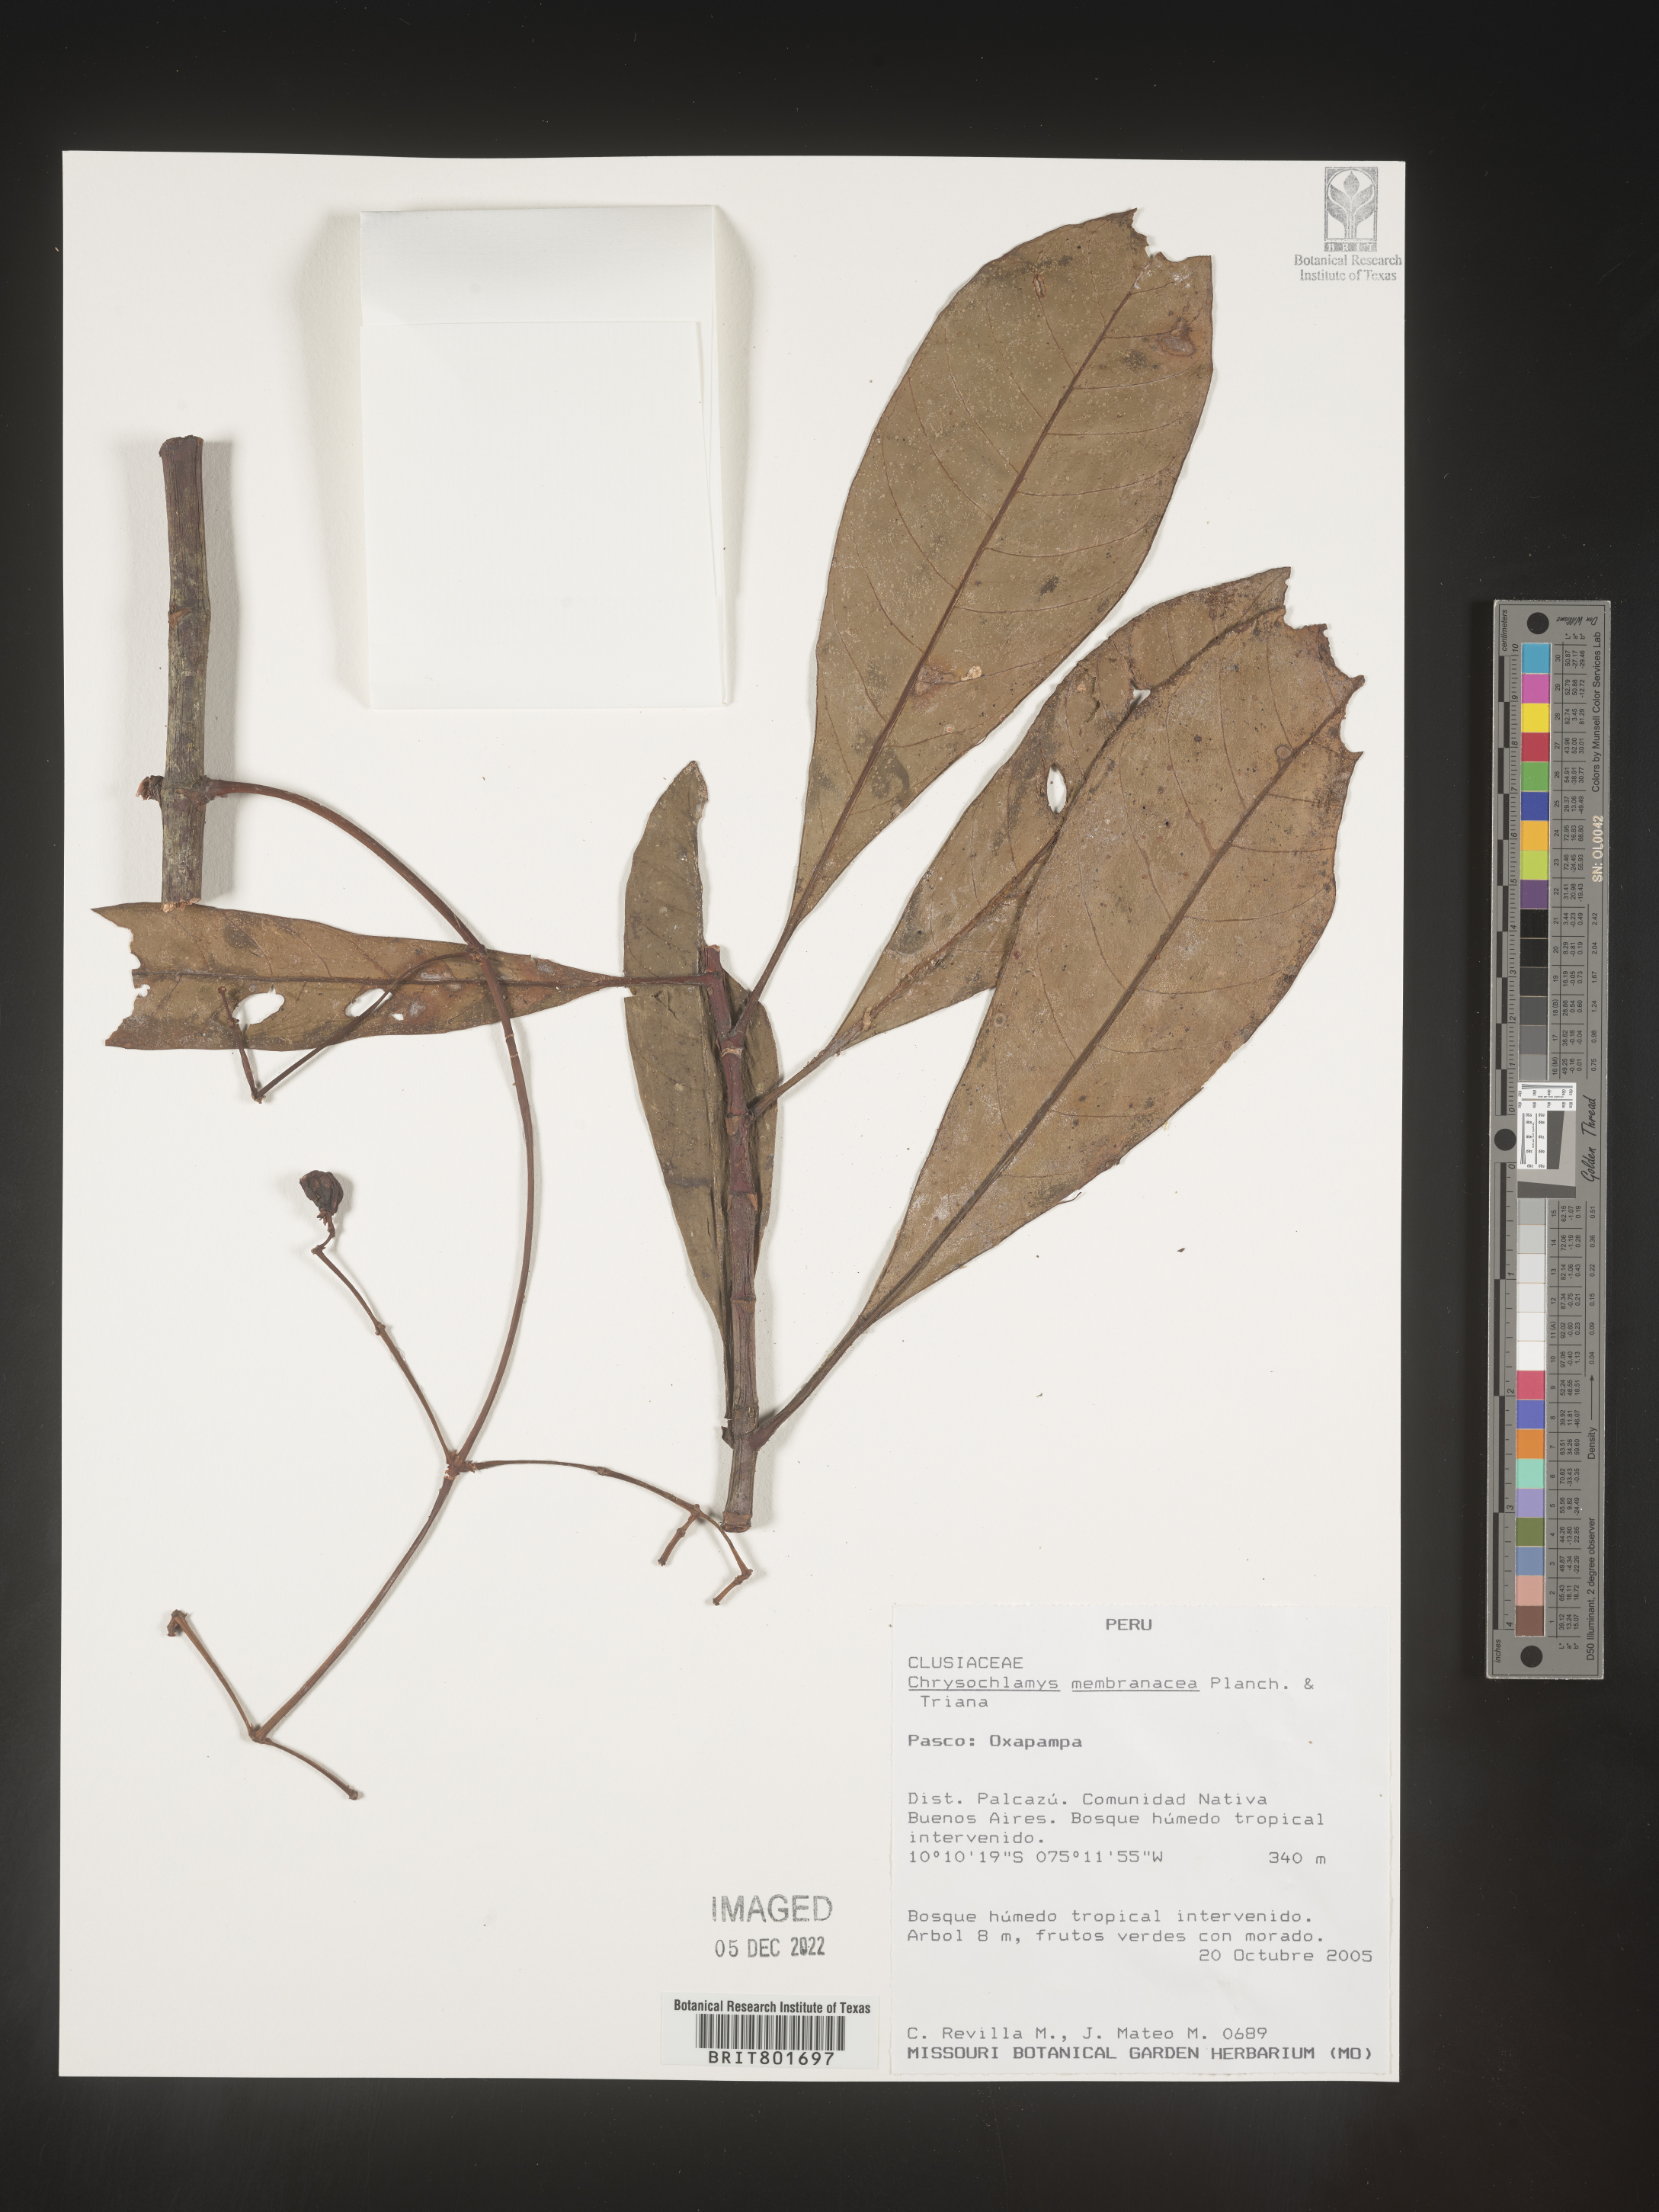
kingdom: Plantae
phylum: Tracheophyta
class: Magnoliopsida
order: Malpighiales
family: Clusiaceae
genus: Chrysochlamys
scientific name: Chrysochlamys
